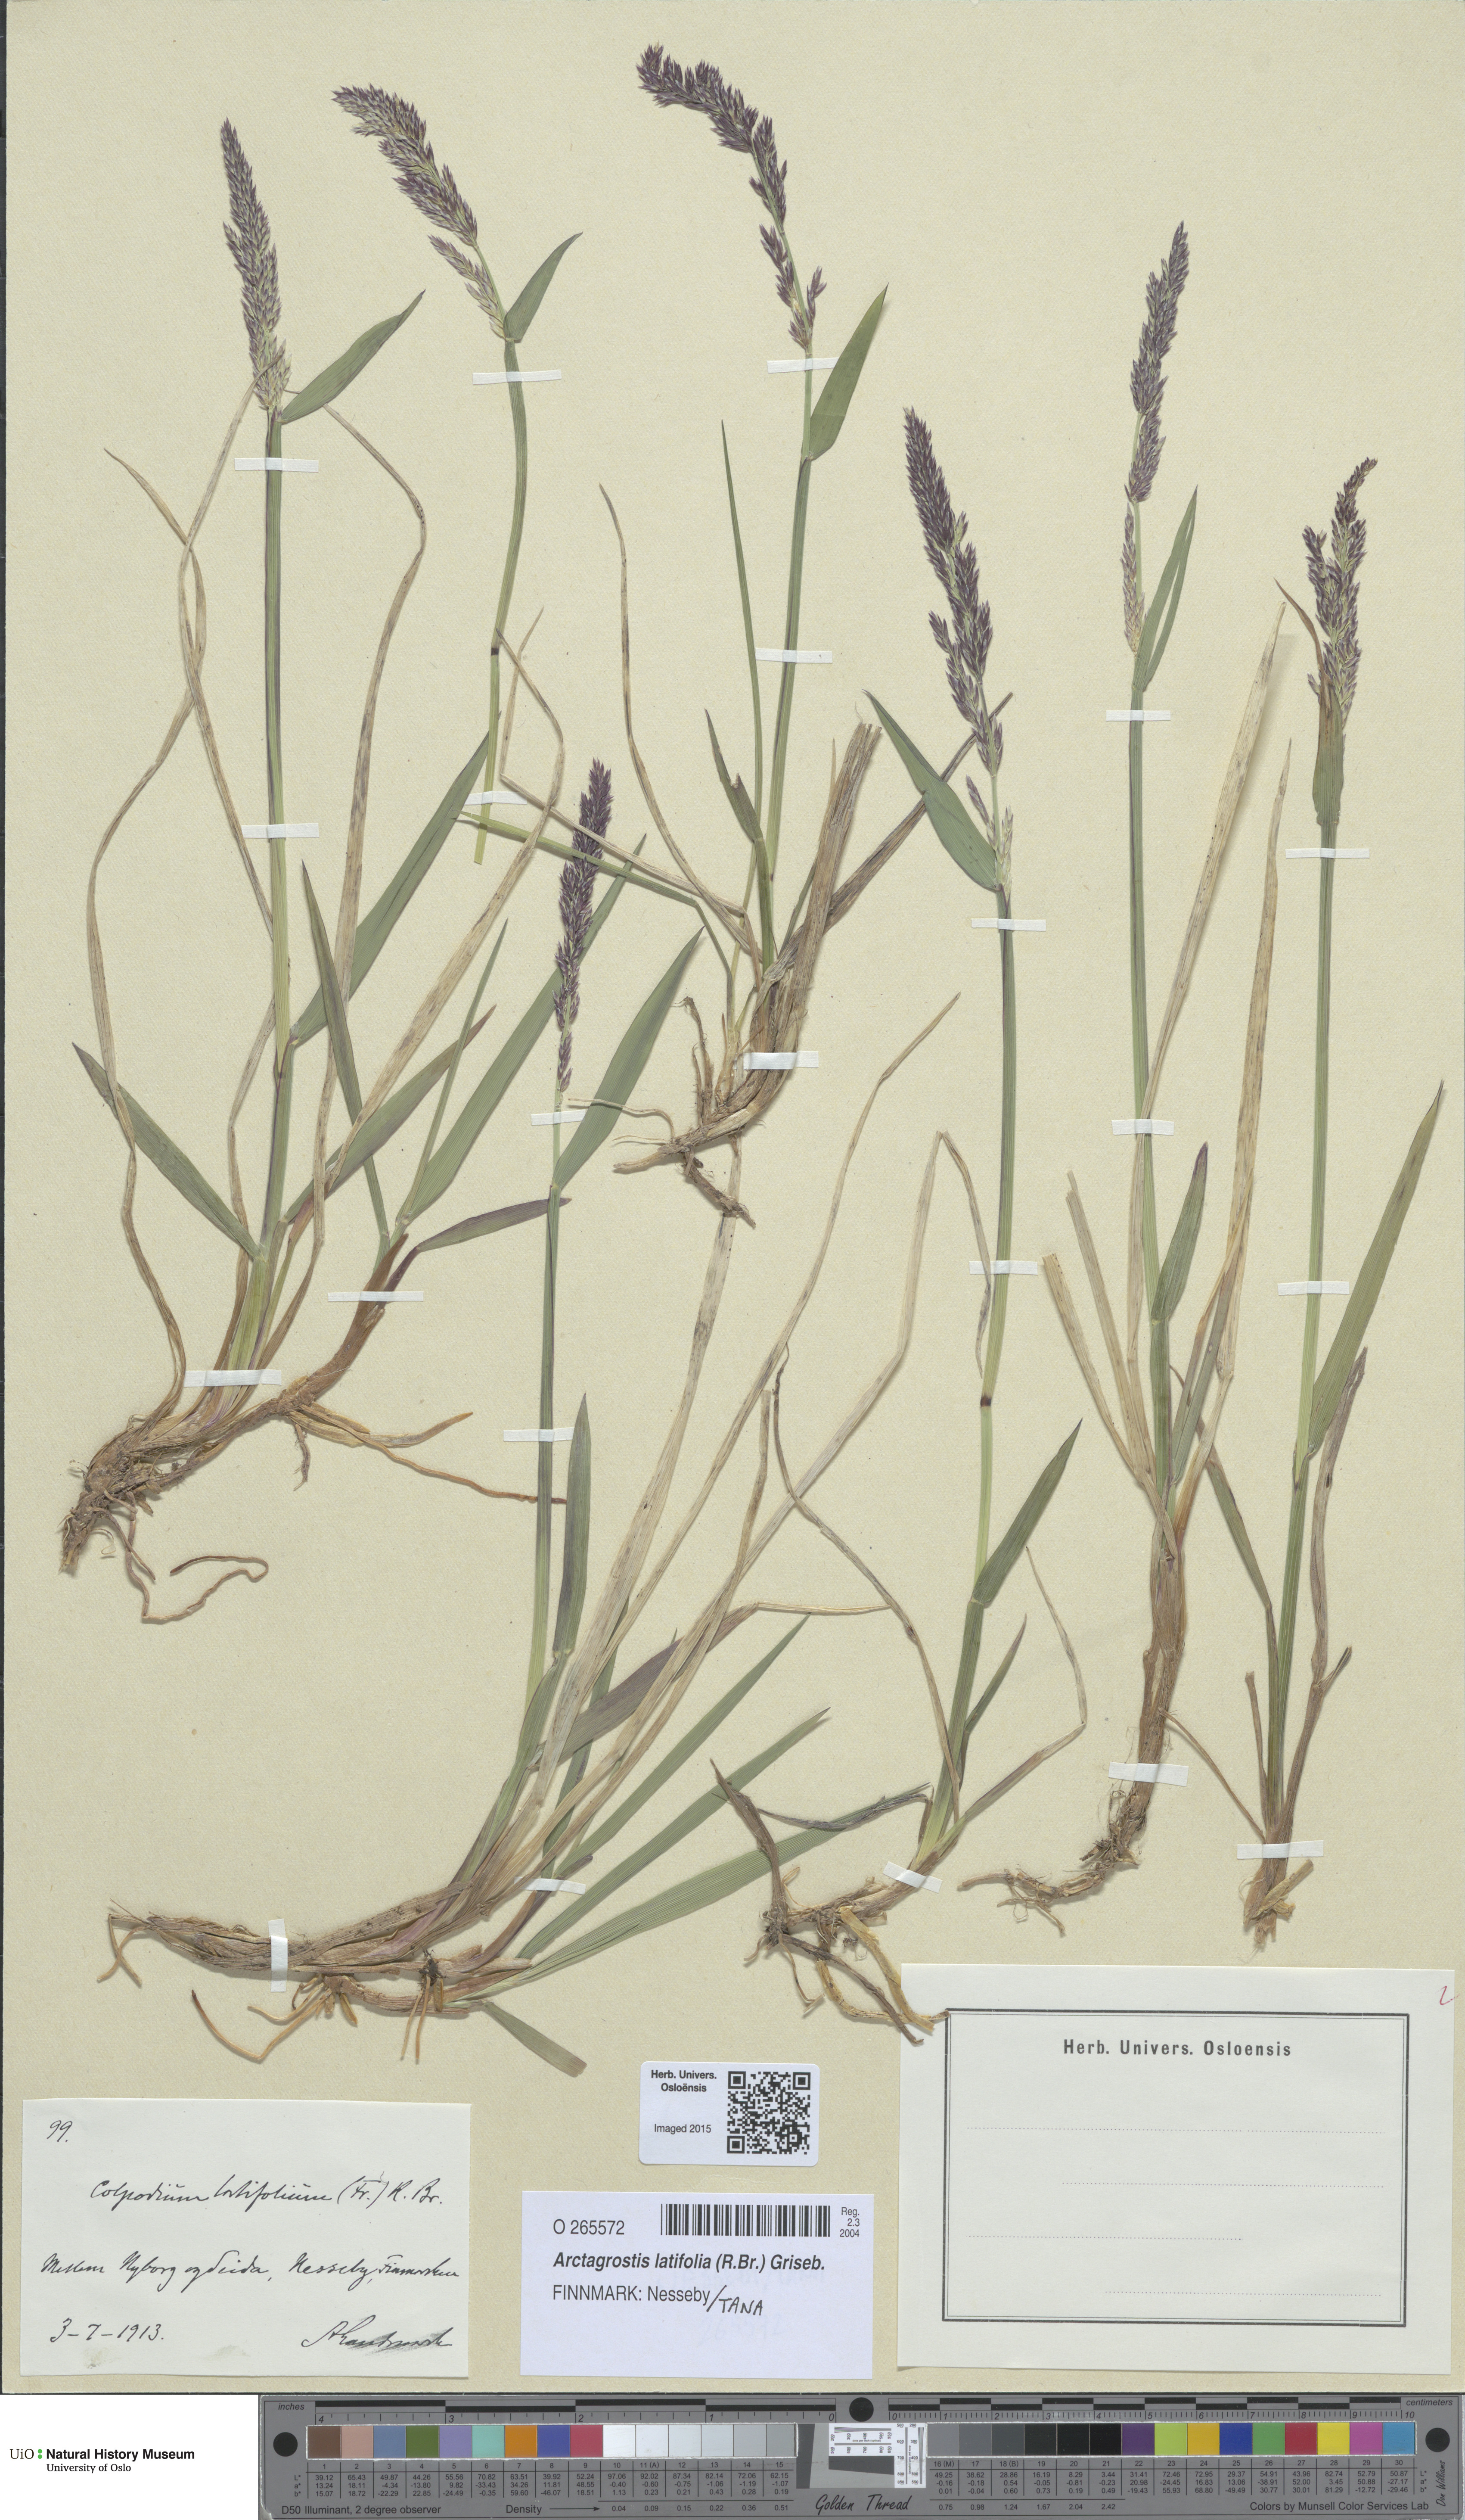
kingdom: Plantae
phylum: Tracheophyta
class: Liliopsida
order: Poales
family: Poaceae
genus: Arctagrostis
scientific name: Arctagrostis latifolia
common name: Arctic grass
